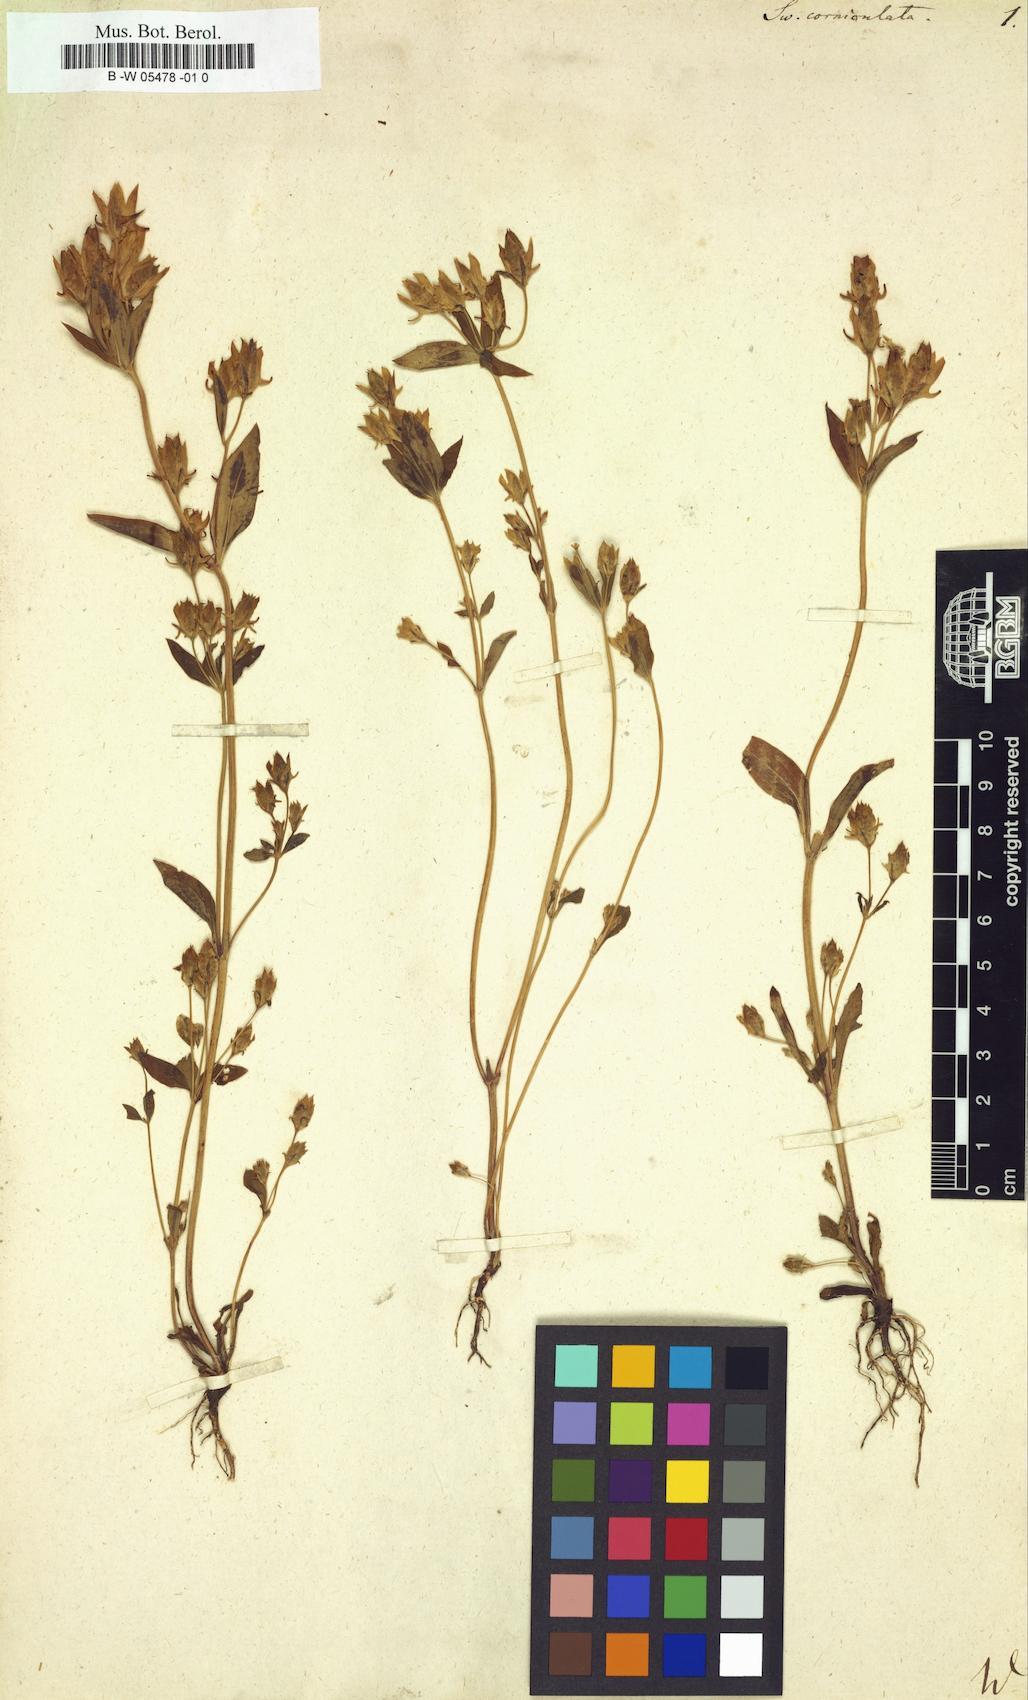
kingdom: Plantae
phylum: Tracheophyta
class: Magnoliopsida
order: Gentianales
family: Gentianaceae
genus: Halenia
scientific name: Halenia
